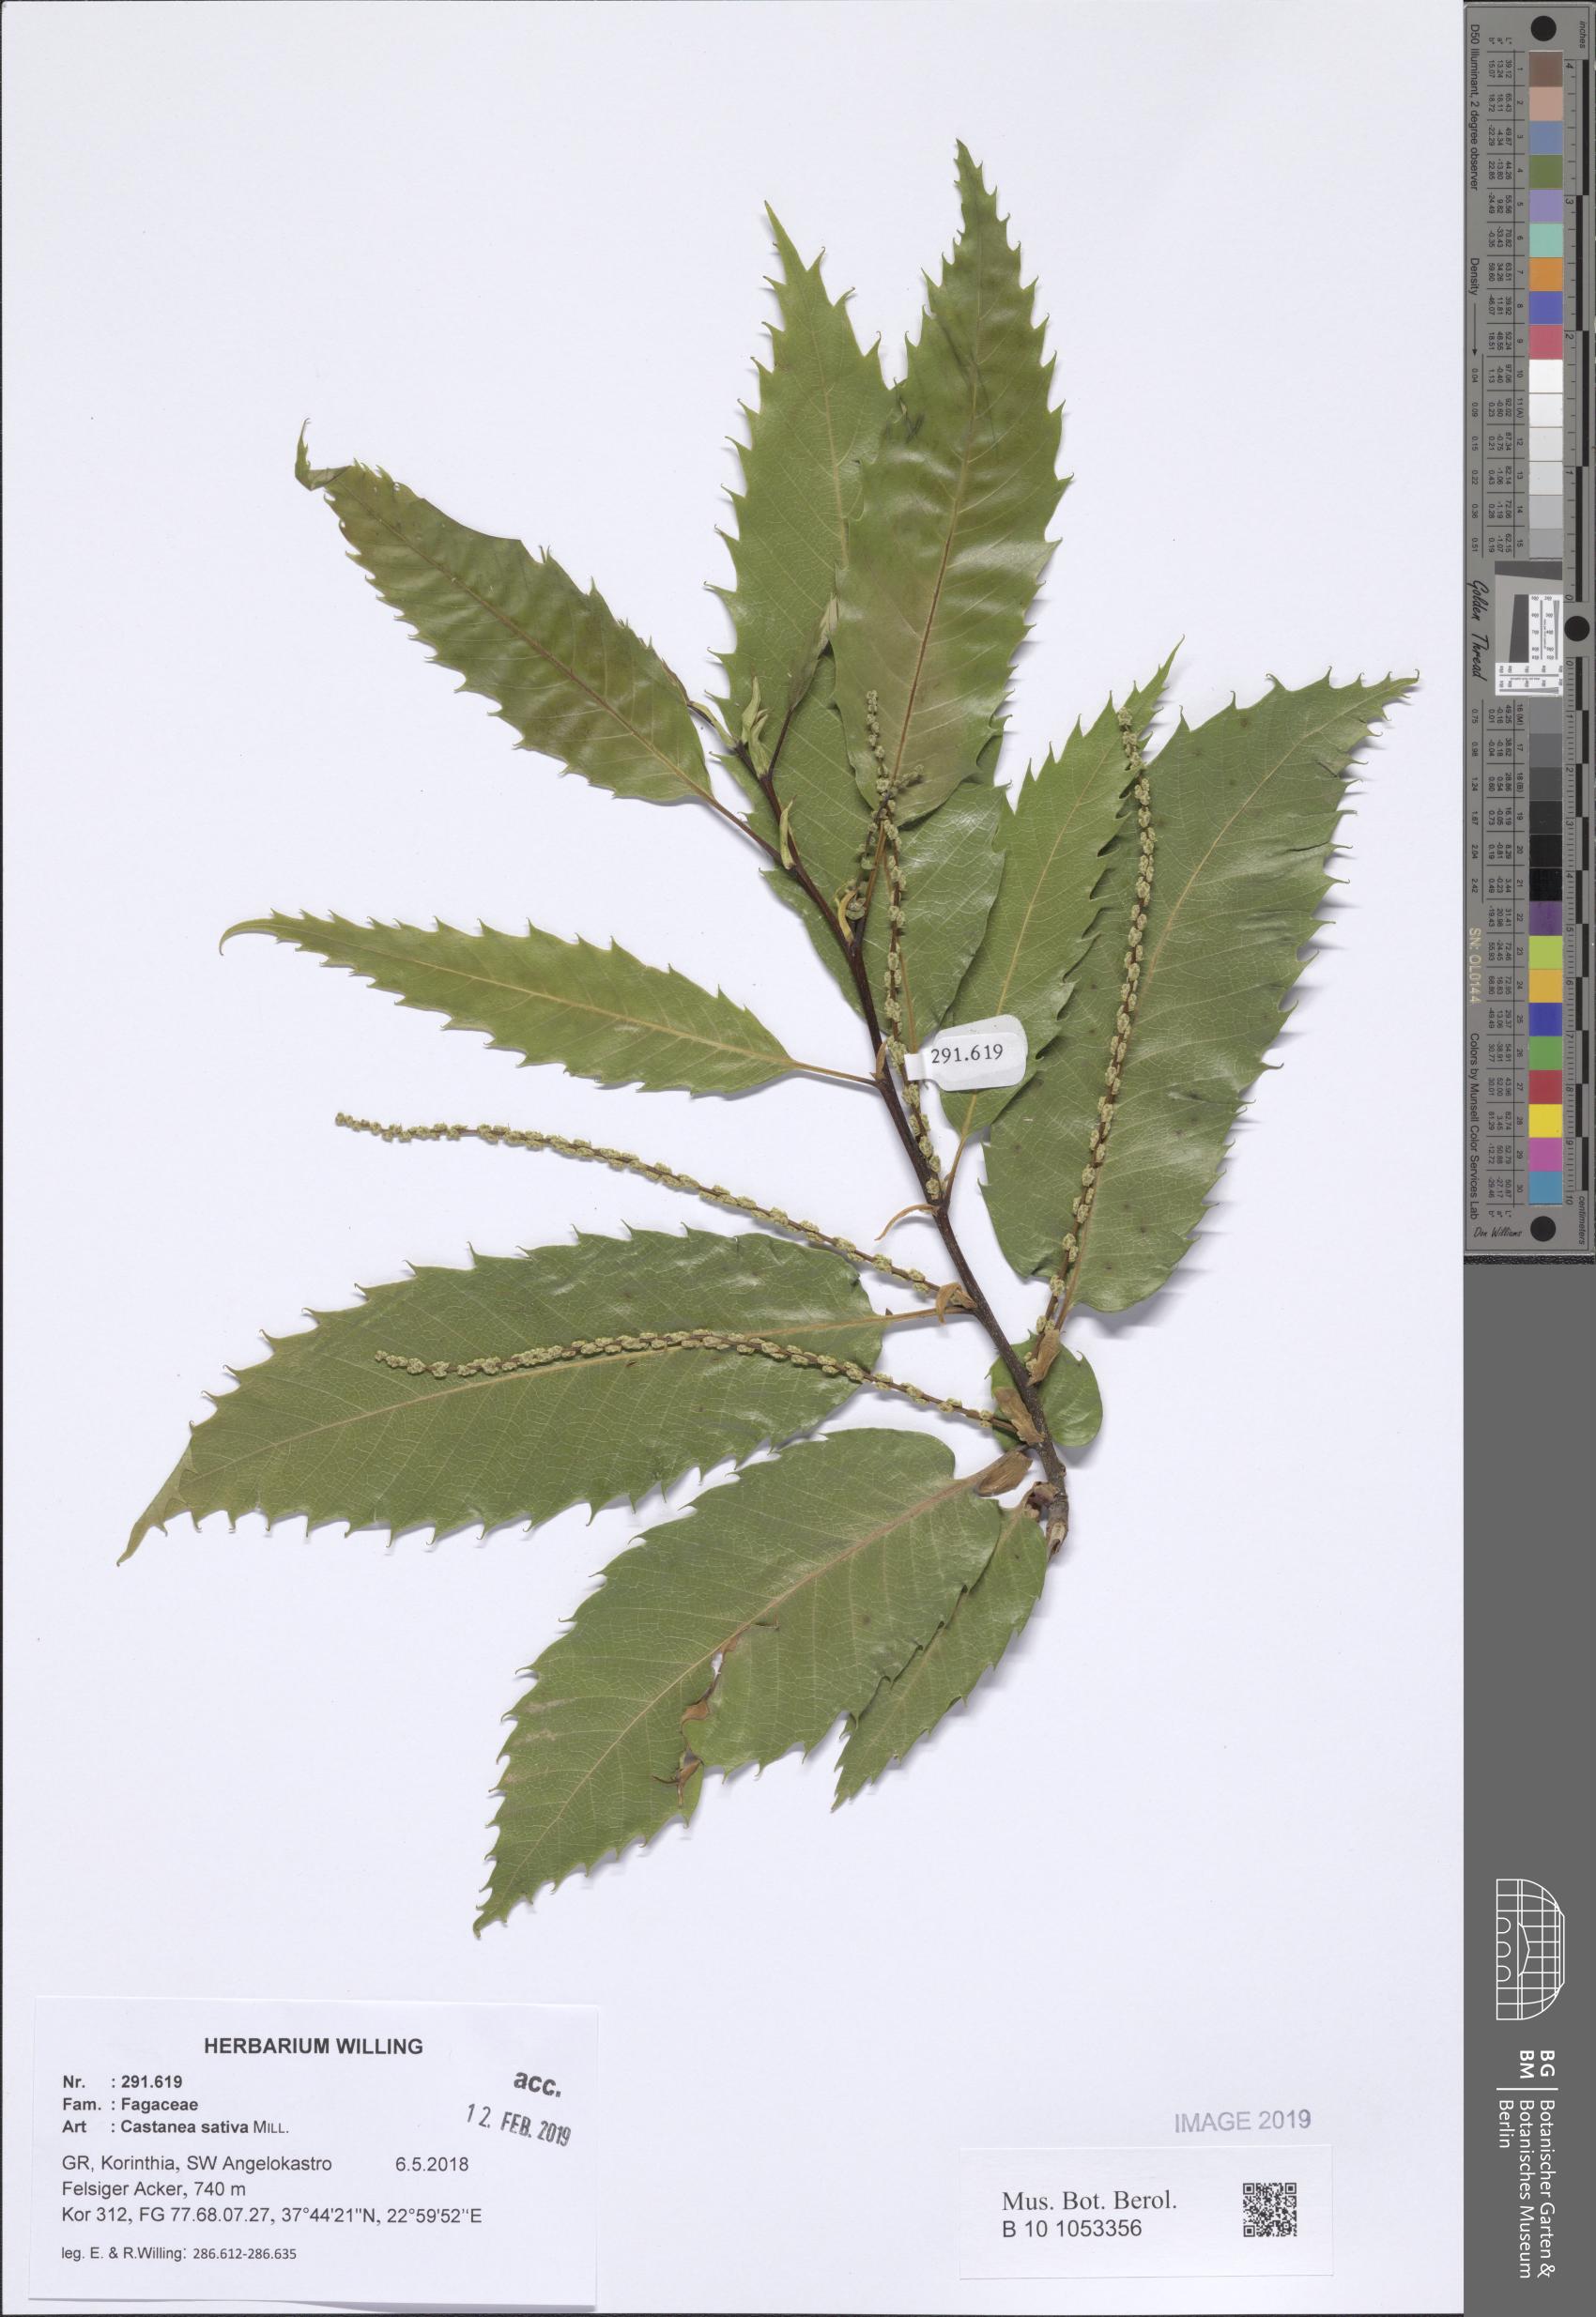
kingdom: Plantae
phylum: Tracheophyta
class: Magnoliopsida
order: Fagales
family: Fagaceae
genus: Castanea
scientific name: Castanea sativa
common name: Sweet chestnut
